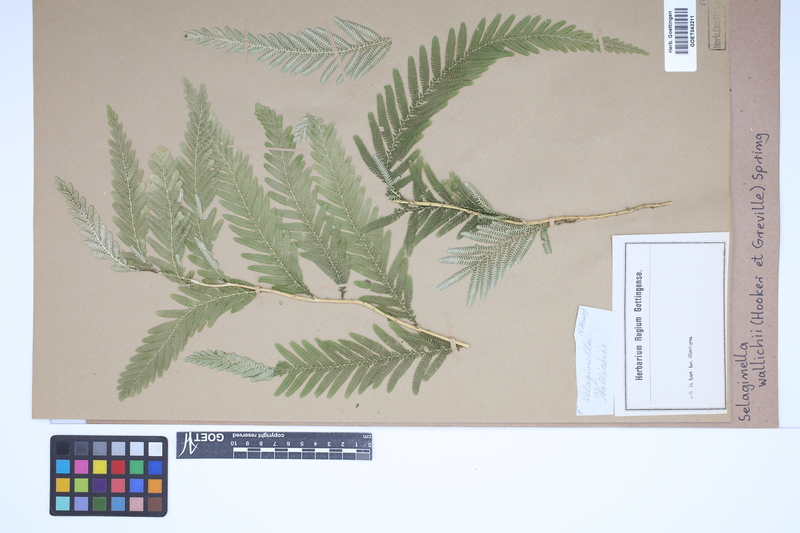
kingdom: Plantae
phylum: Tracheophyta
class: Lycopodiopsida
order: Selaginellales
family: Selaginellaceae
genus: Selaginella
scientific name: Selaginella wallichii
